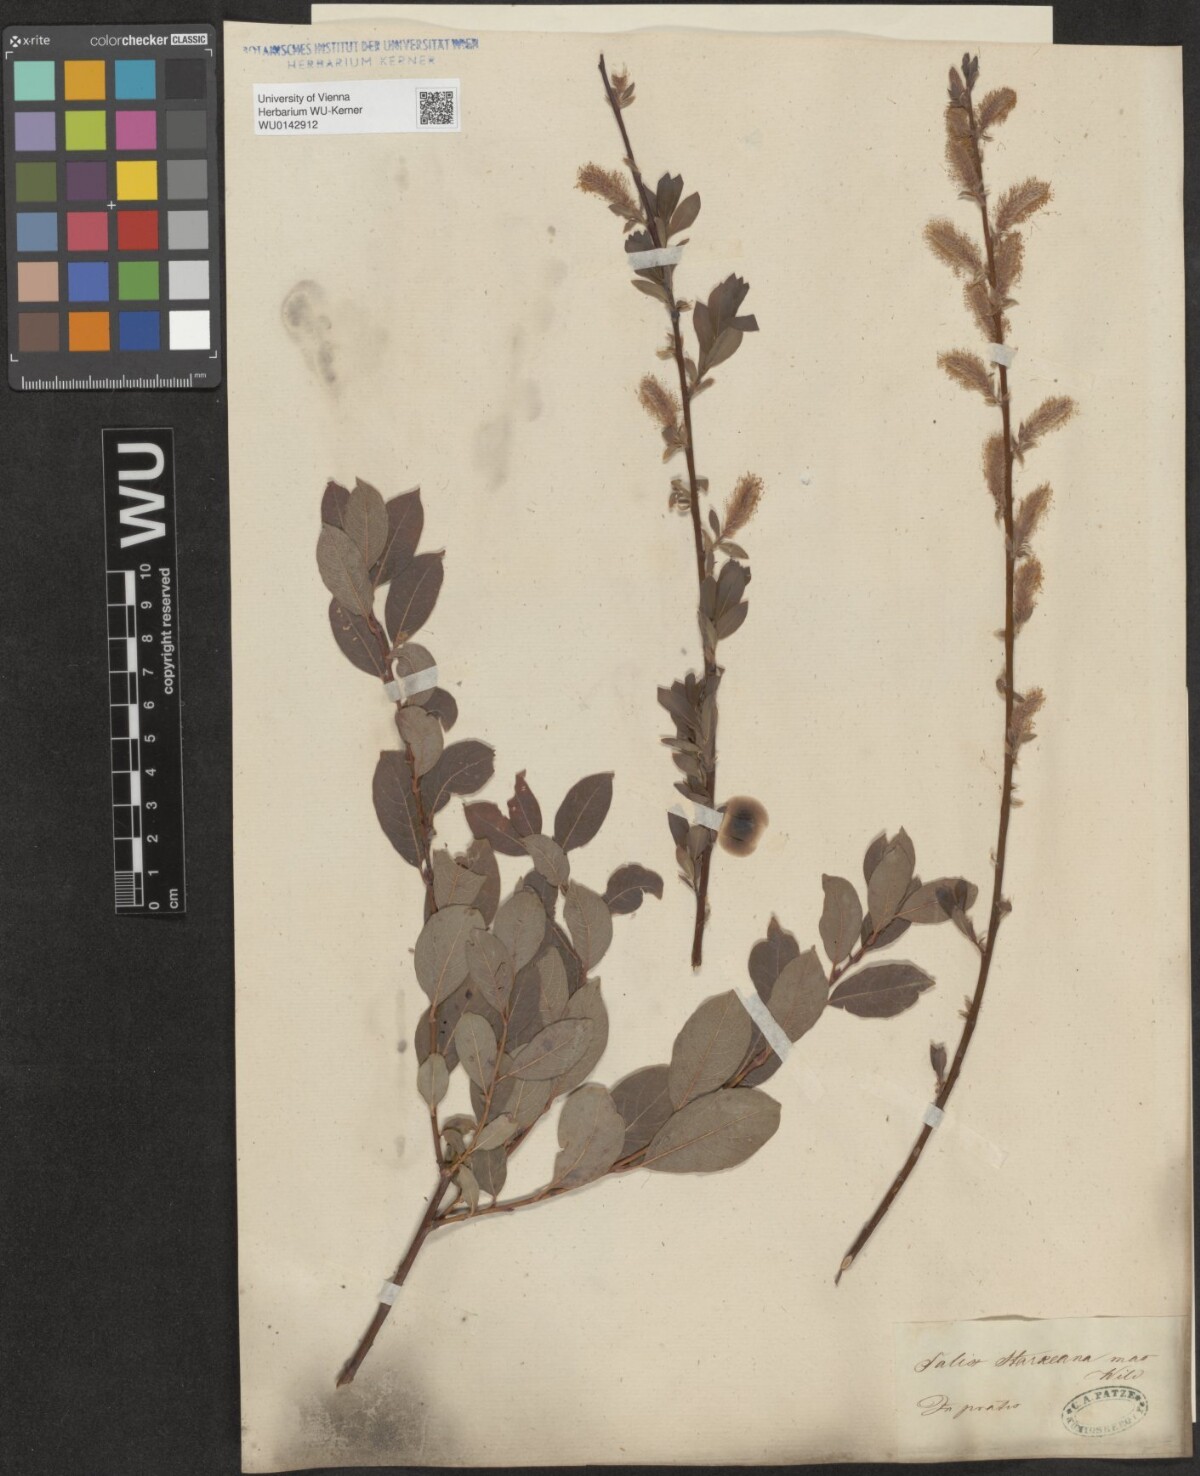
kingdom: Plantae
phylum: Tracheophyta
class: Magnoliopsida
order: Malpighiales
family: Salicaceae
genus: Salix
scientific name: Salix starkeana
